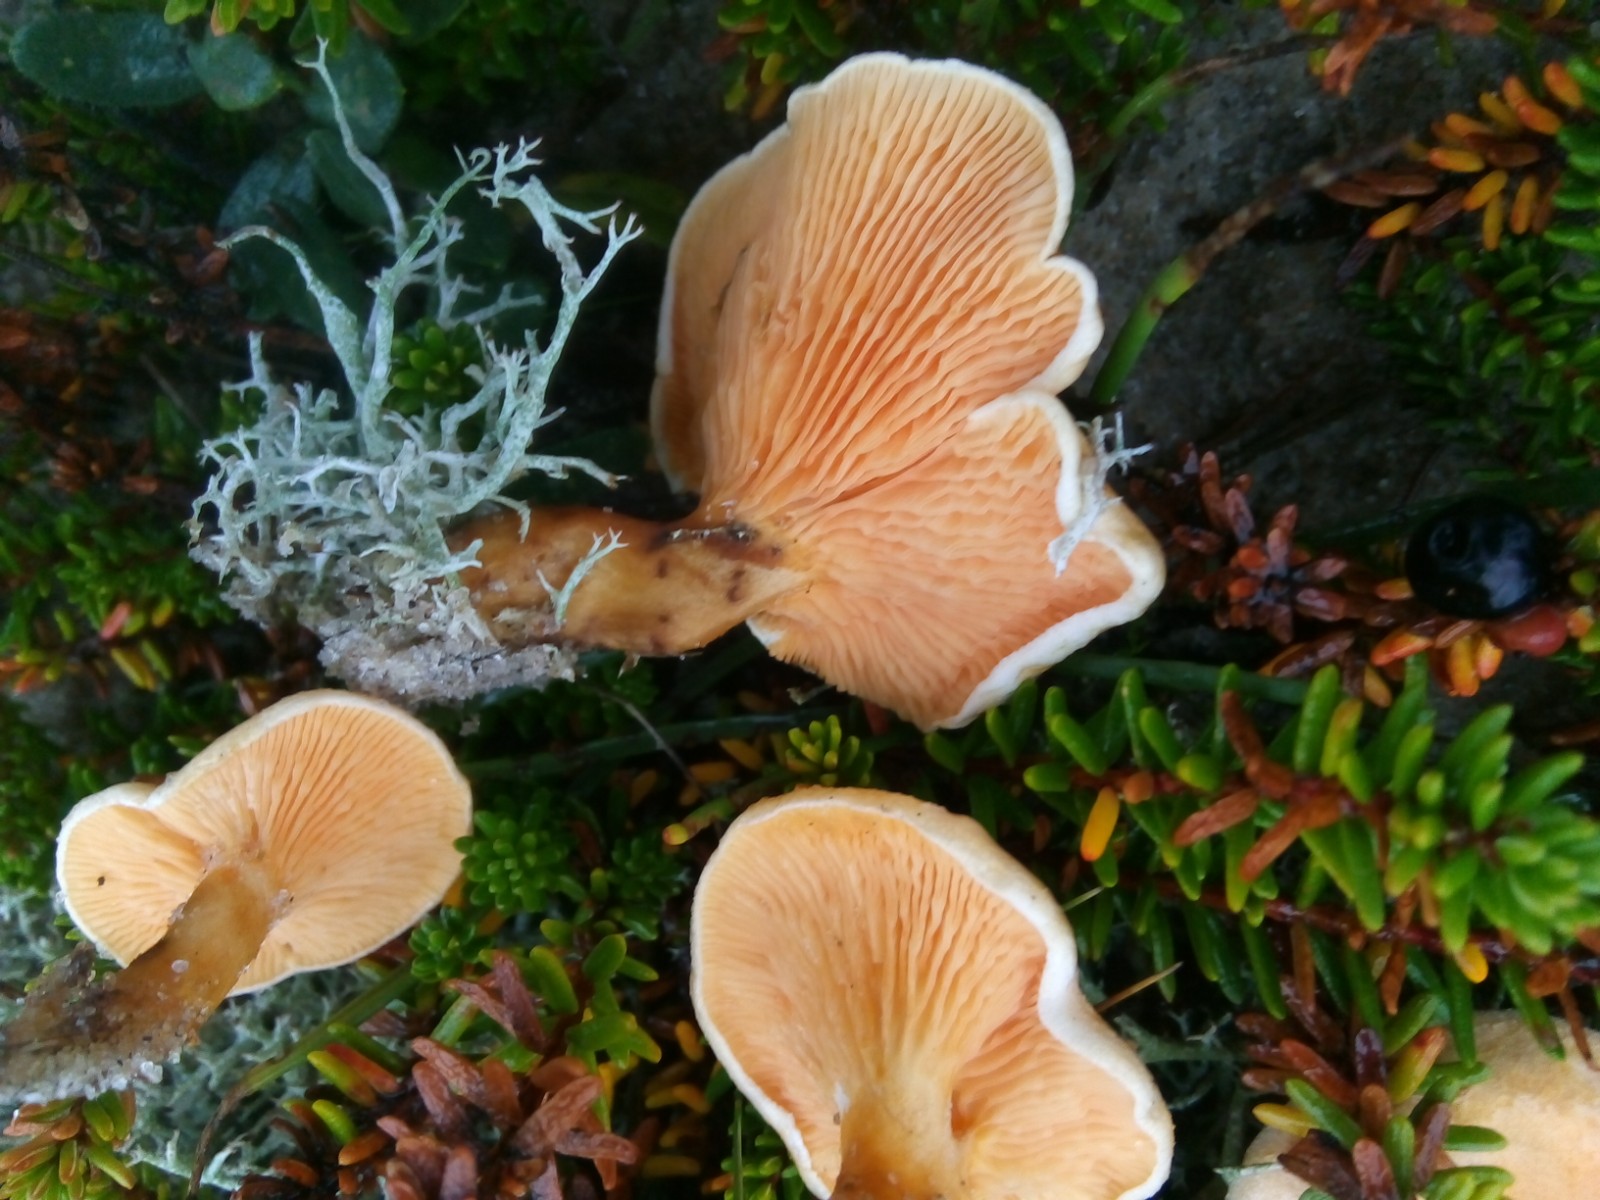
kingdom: Fungi
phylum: Basidiomycota
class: Agaricomycetes
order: Boletales
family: Hygrophoropsidaceae
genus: Hygrophoropsis
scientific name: Hygrophoropsis aurantiaca
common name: almindelig orangekantarel
